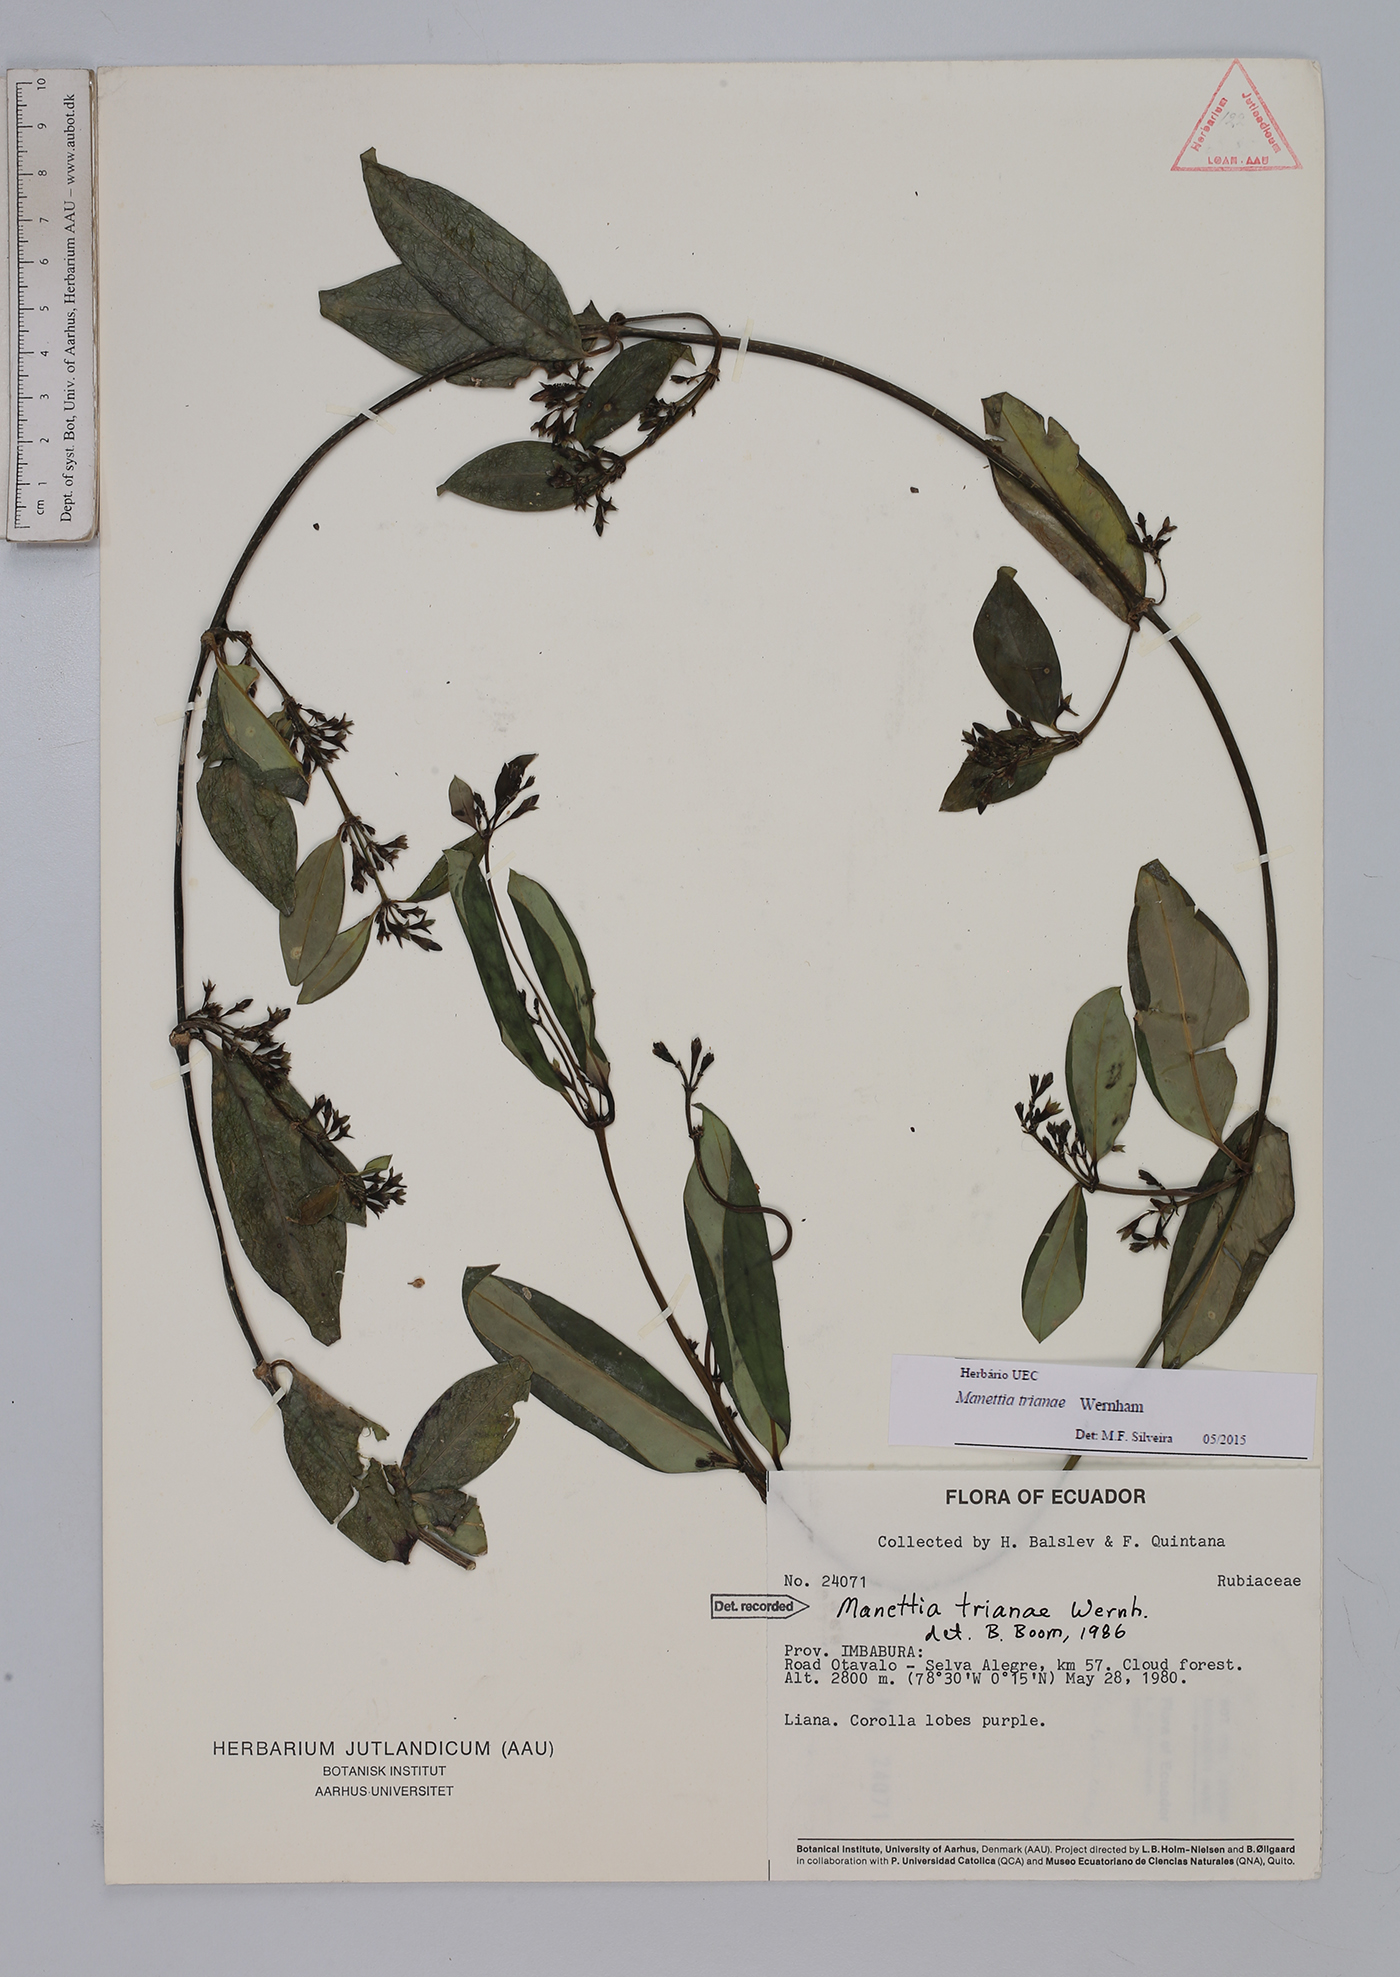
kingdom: Plantae
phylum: Tracheophyta
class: Magnoliopsida
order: Gentianales
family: Rubiaceae
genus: Manettia
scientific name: Manettia trianae
